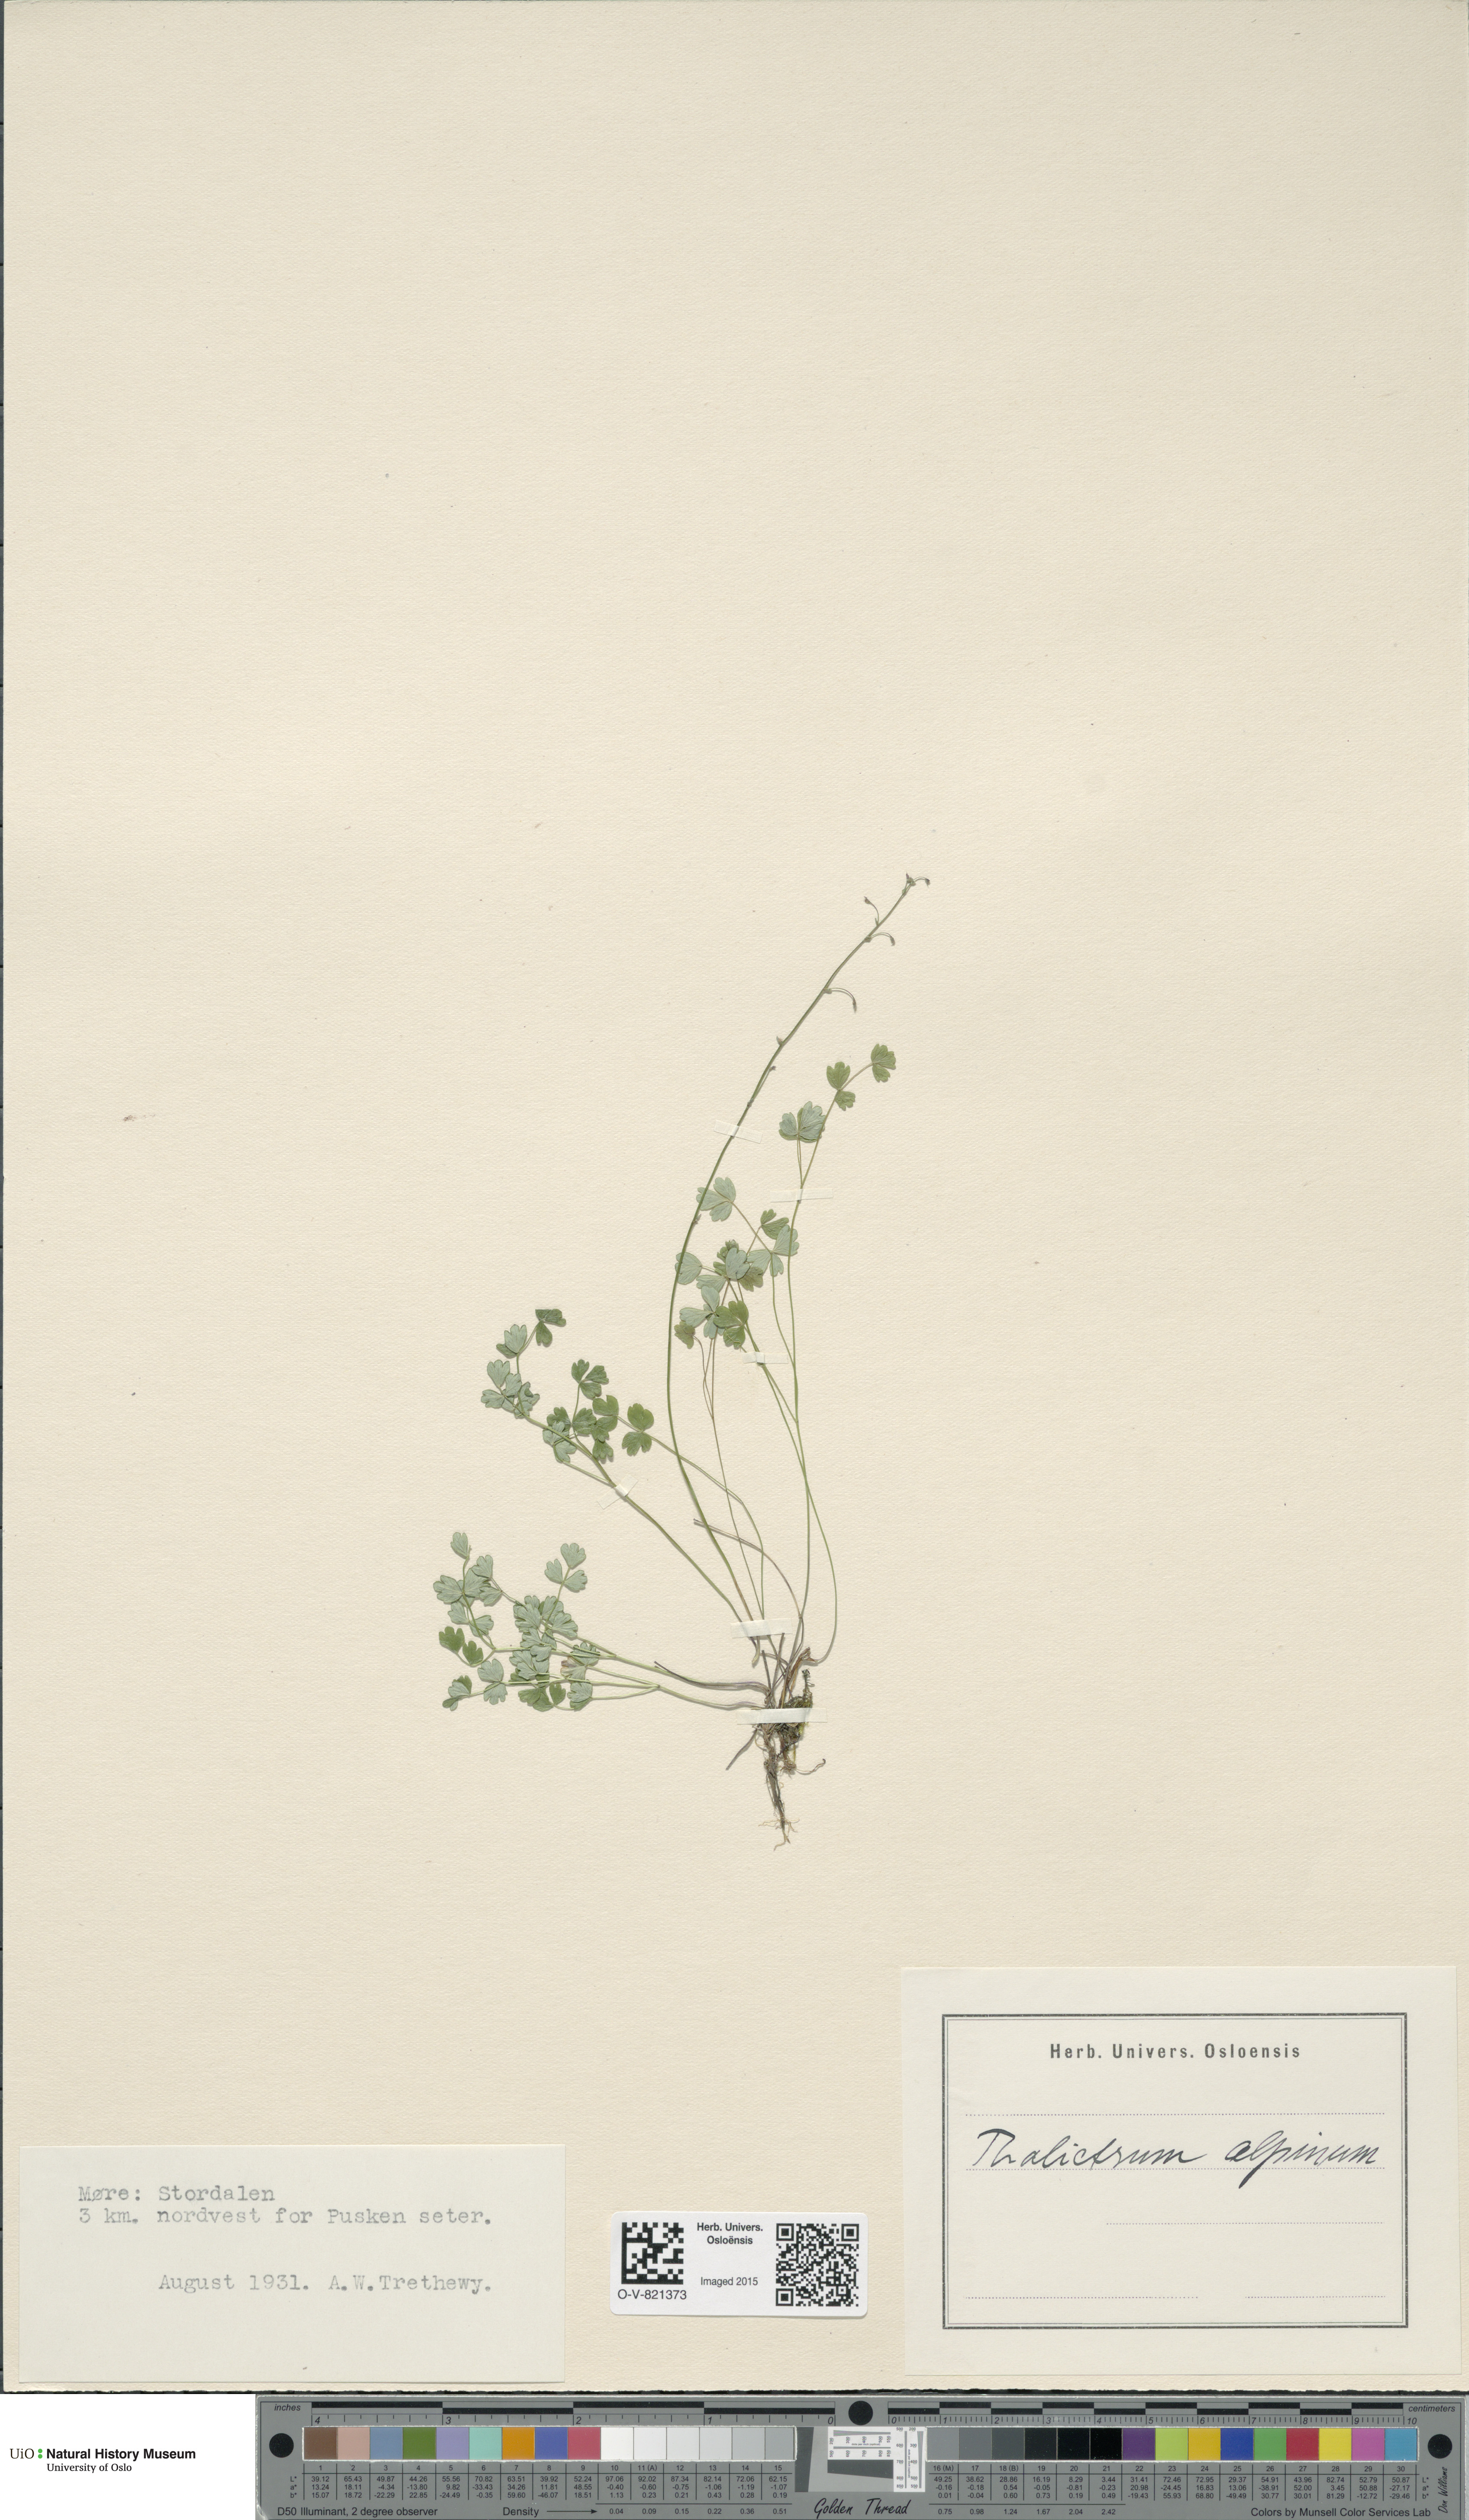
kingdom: Plantae
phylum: Tracheophyta
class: Magnoliopsida
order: Ranunculales
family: Ranunculaceae
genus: Thalictrum
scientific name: Thalictrum alpinum
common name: Alpine meadow-rue
